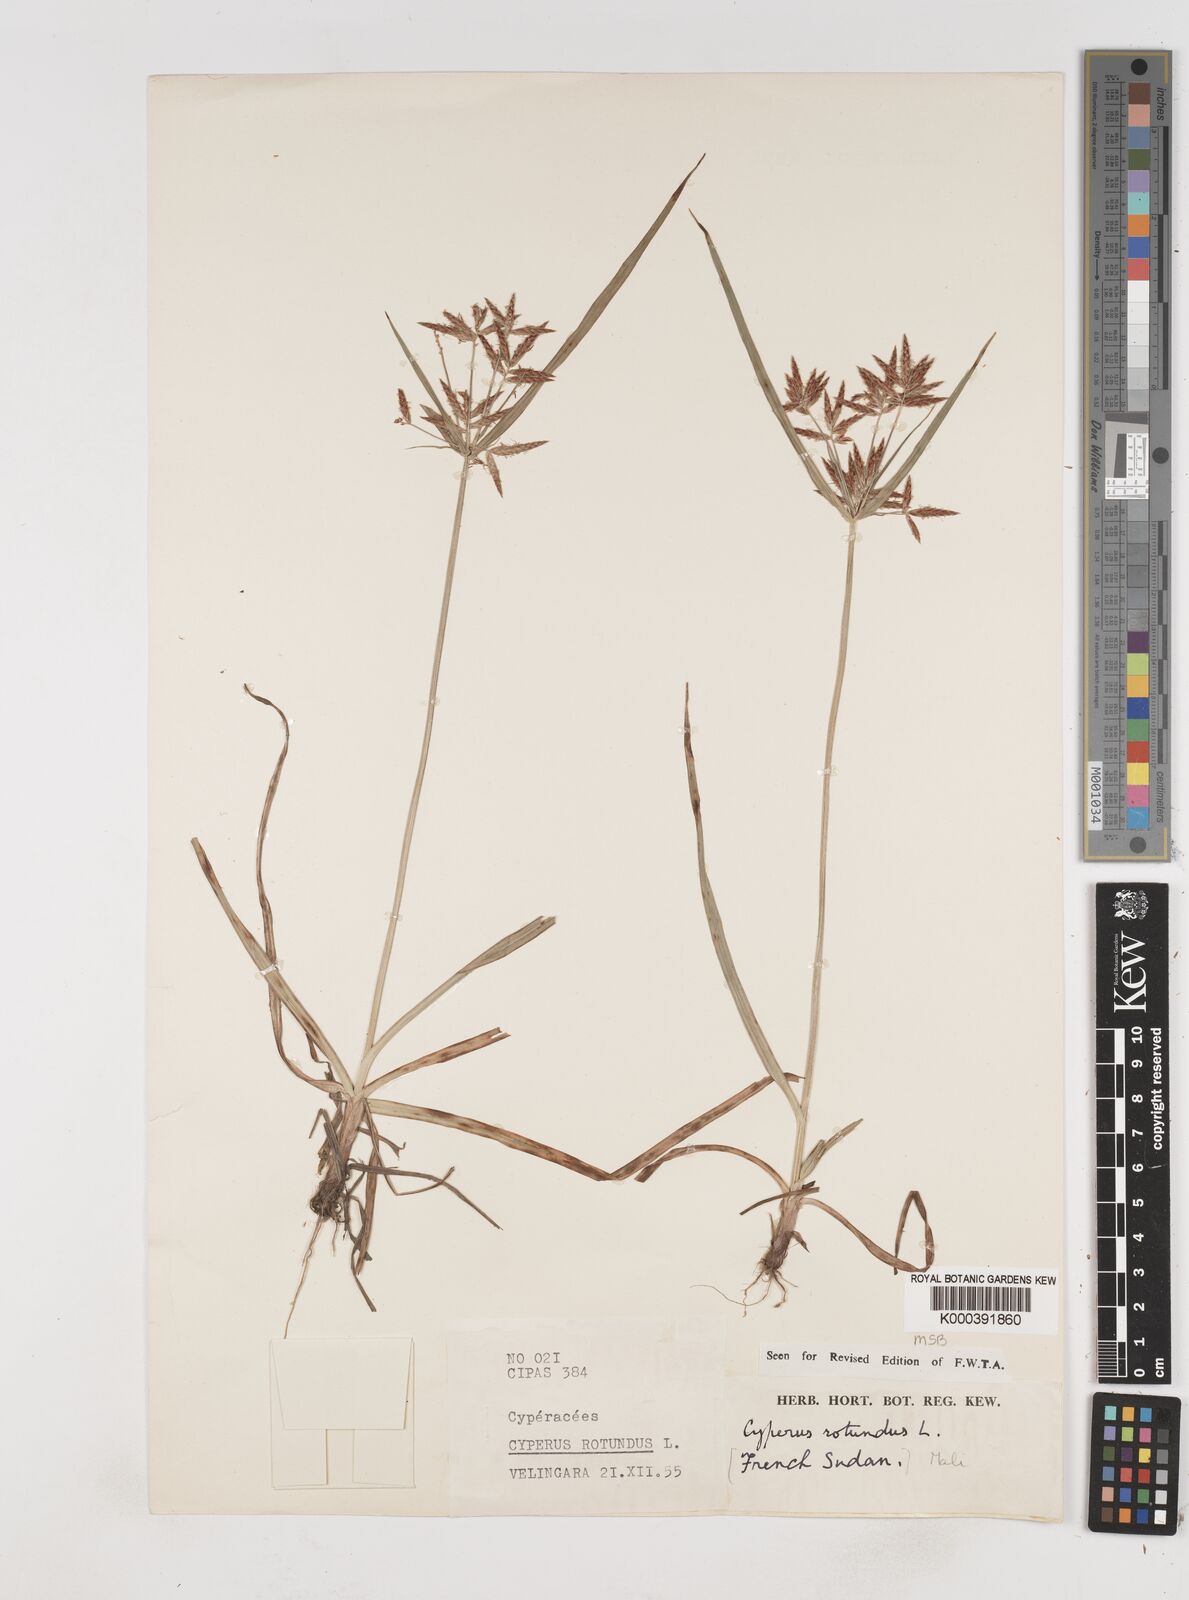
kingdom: Plantae
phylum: Tracheophyta
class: Liliopsida
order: Poales
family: Cyperaceae
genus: Cyperus
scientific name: Cyperus rotundus
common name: Nutgrass
